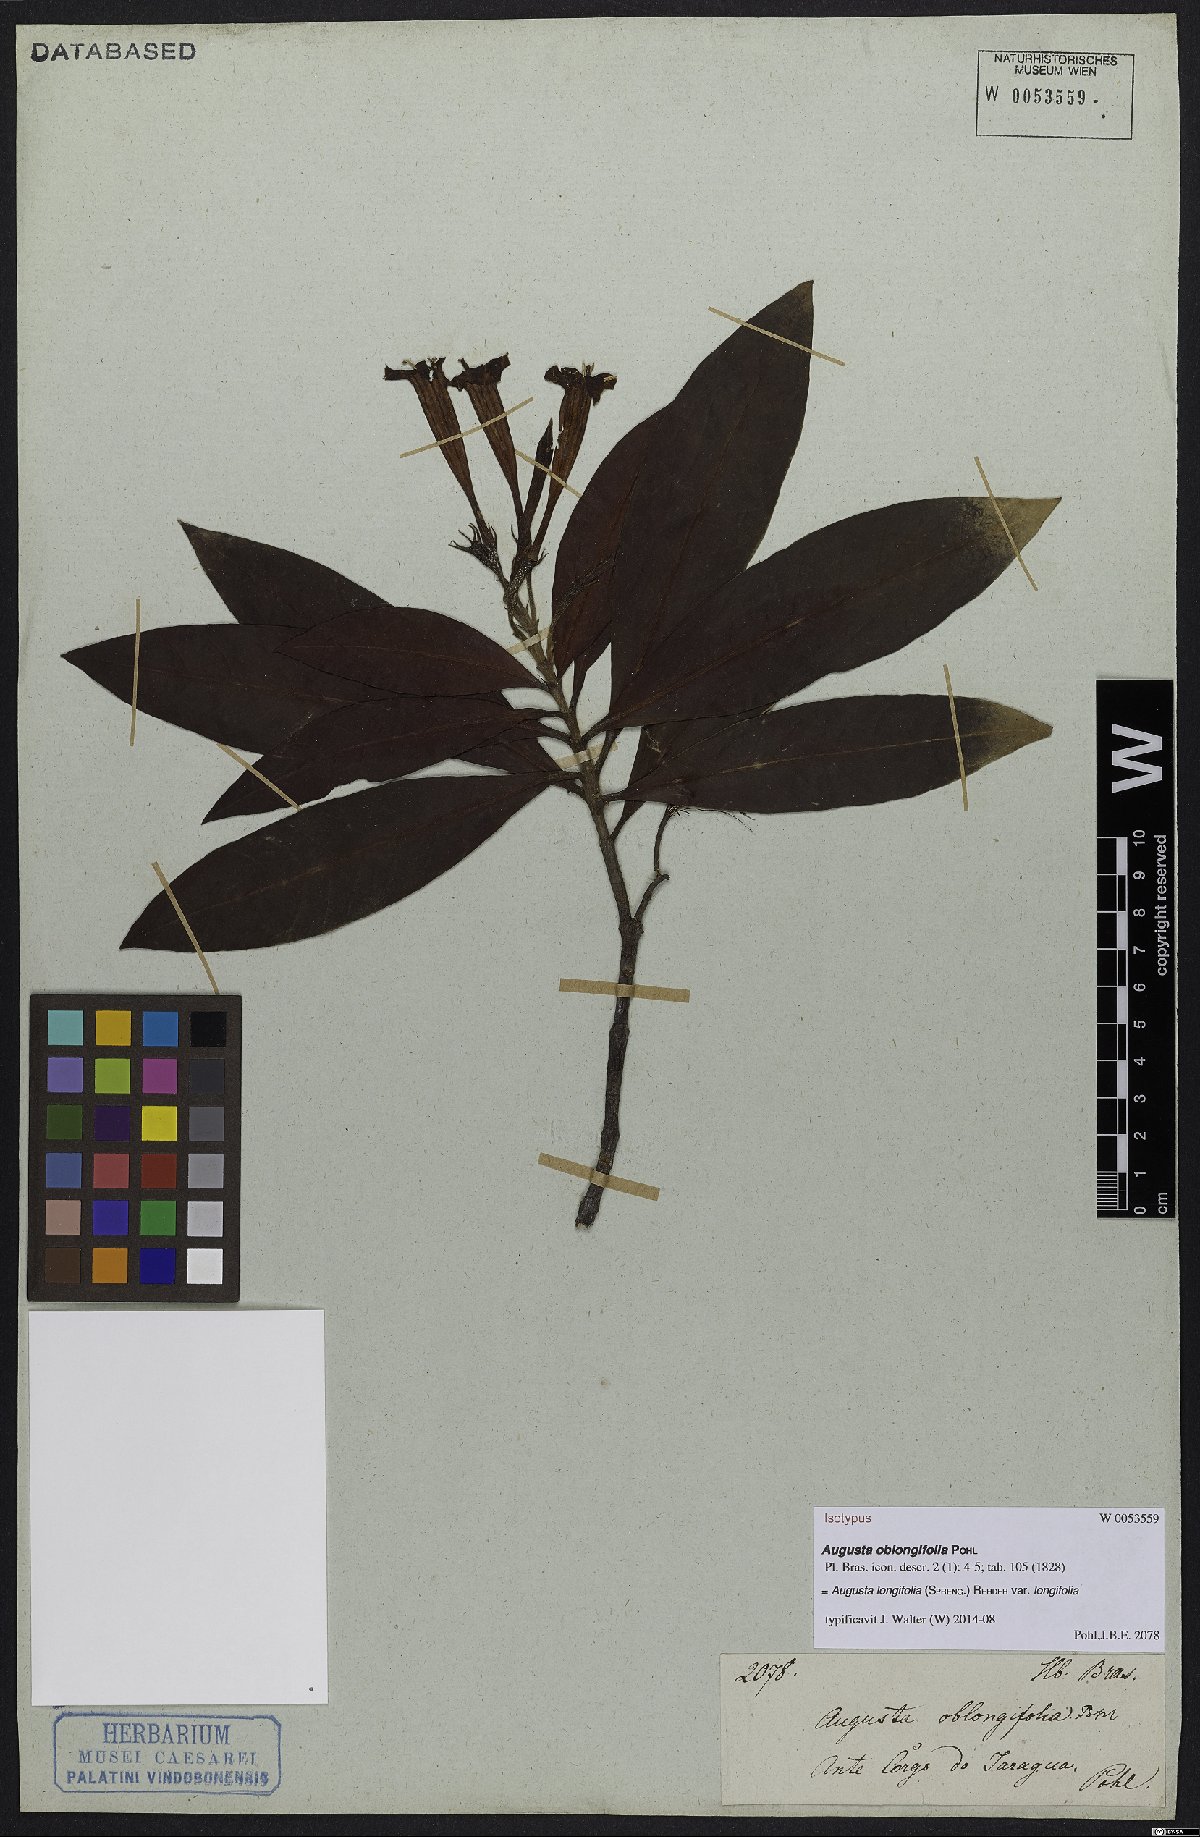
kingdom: Plantae
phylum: Tracheophyta
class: Magnoliopsida
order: Gentianales
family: Rubiaceae
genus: Augusta
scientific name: Augusta longifolia
